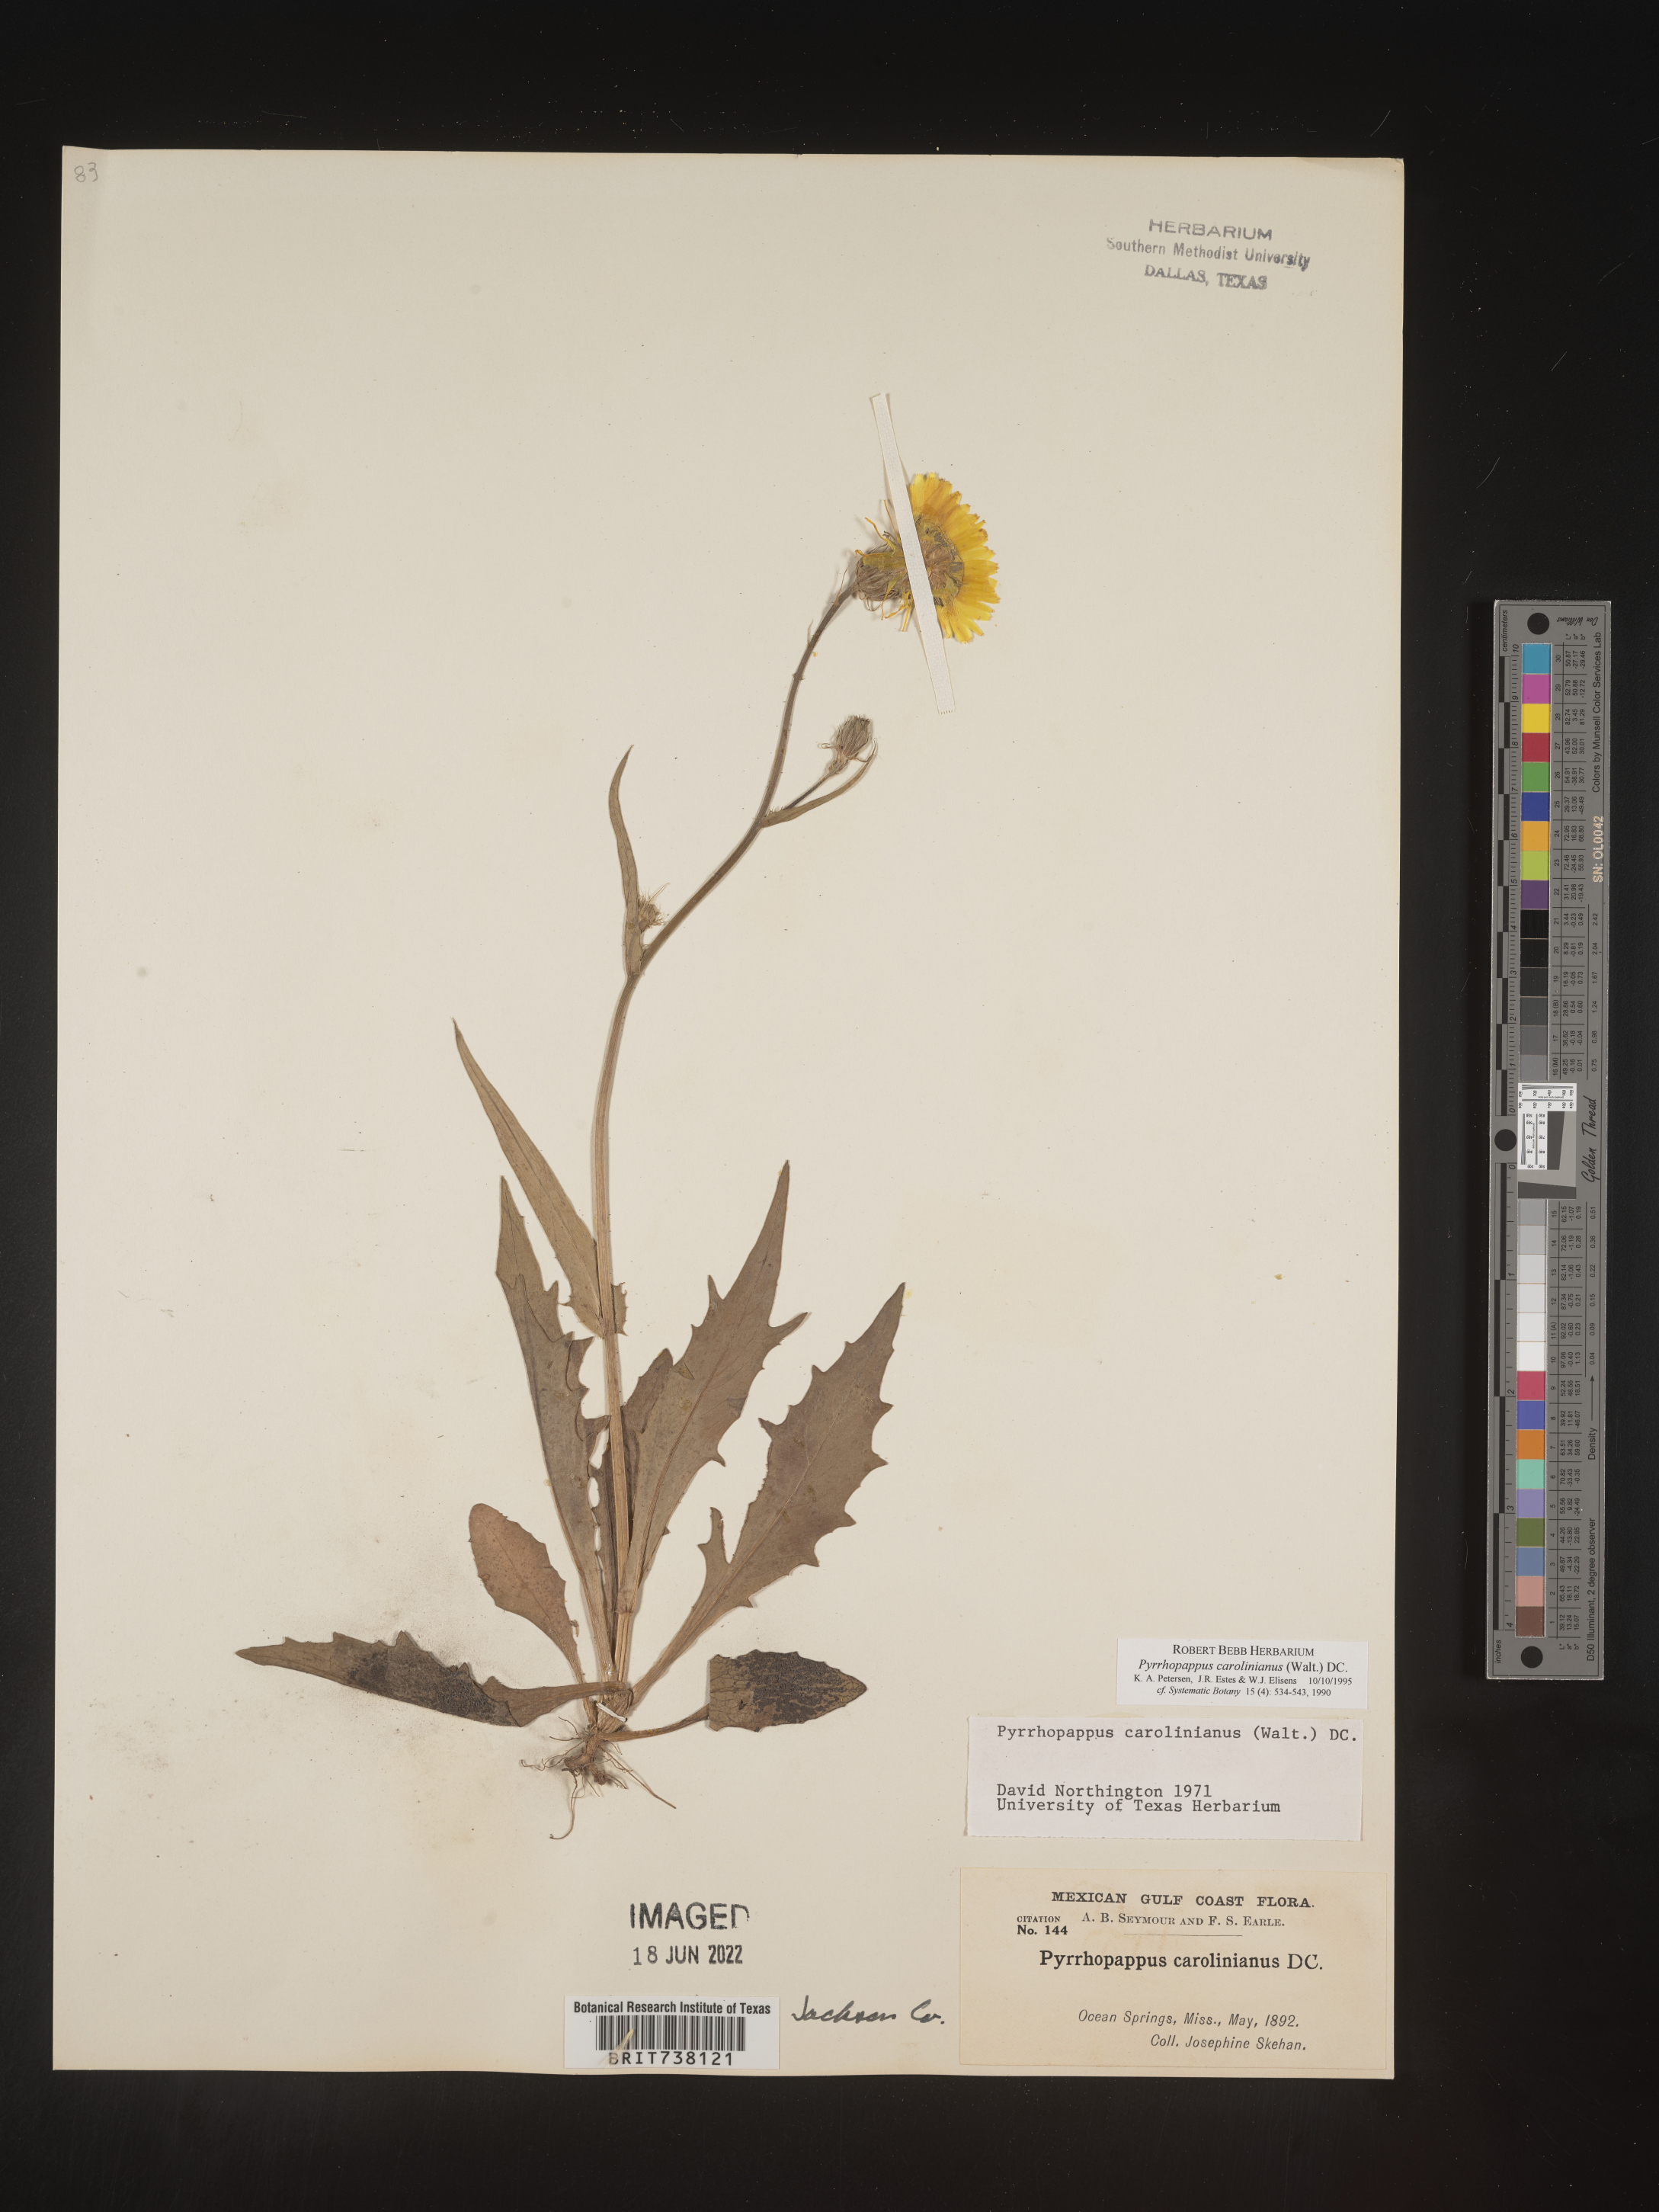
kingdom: Plantae
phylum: Tracheophyta
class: Magnoliopsida
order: Asterales
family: Asteraceae
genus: Pyrrhopappus
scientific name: Pyrrhopappus carolinianus
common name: Carolina desert-chicory
